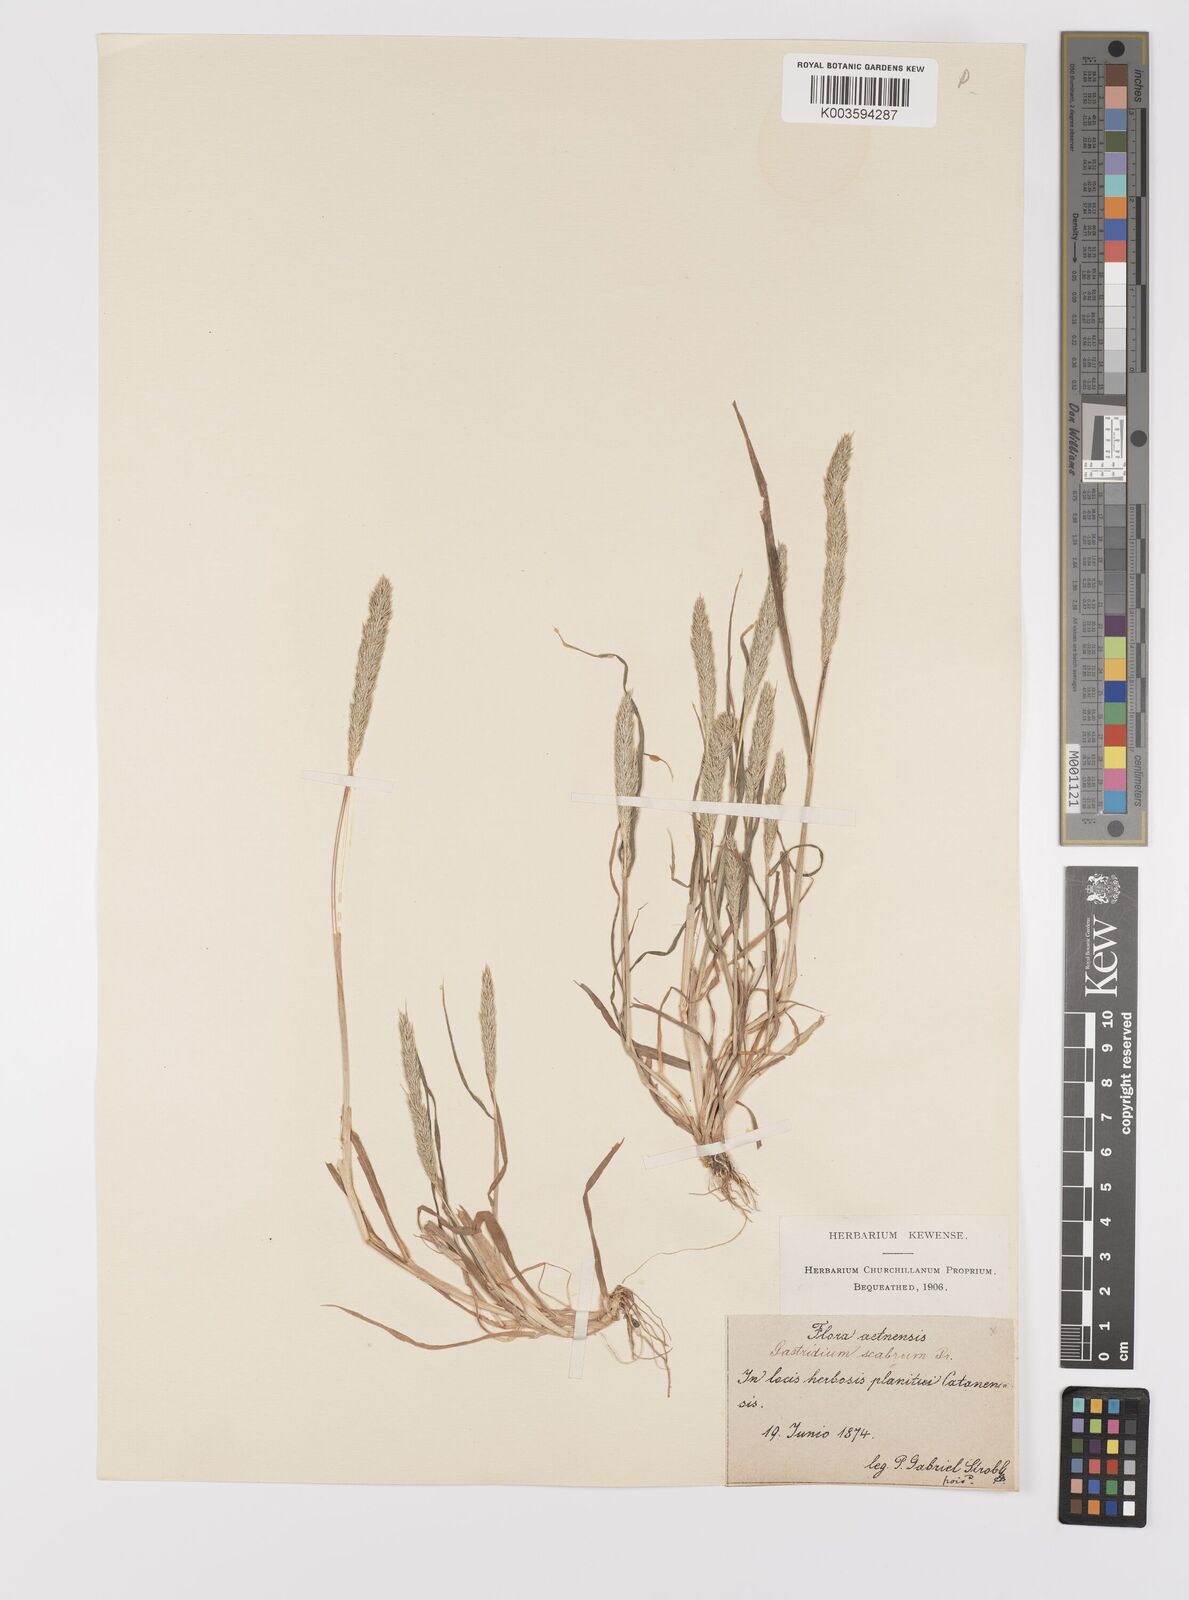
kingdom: Plantae
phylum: Tracheophyta
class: Liliopsida
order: Poales
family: Poaceae
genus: Gastridium
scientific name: Gastridium ventricosum
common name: Nit-grass
